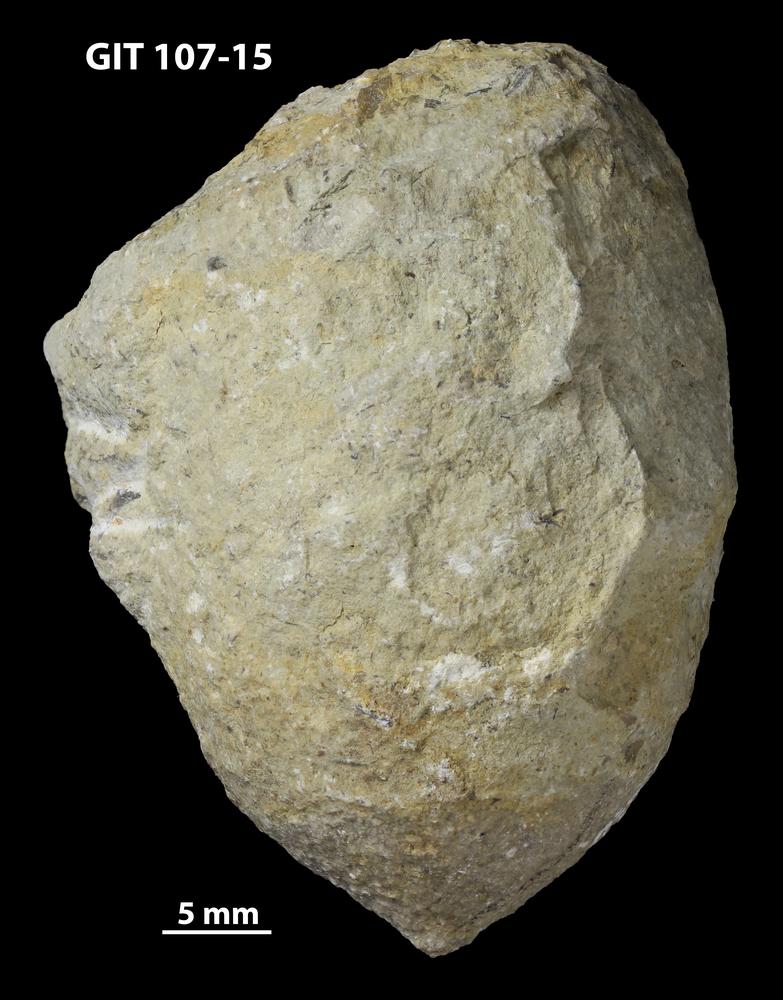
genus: Amphorichnus
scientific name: Amphorichnus
